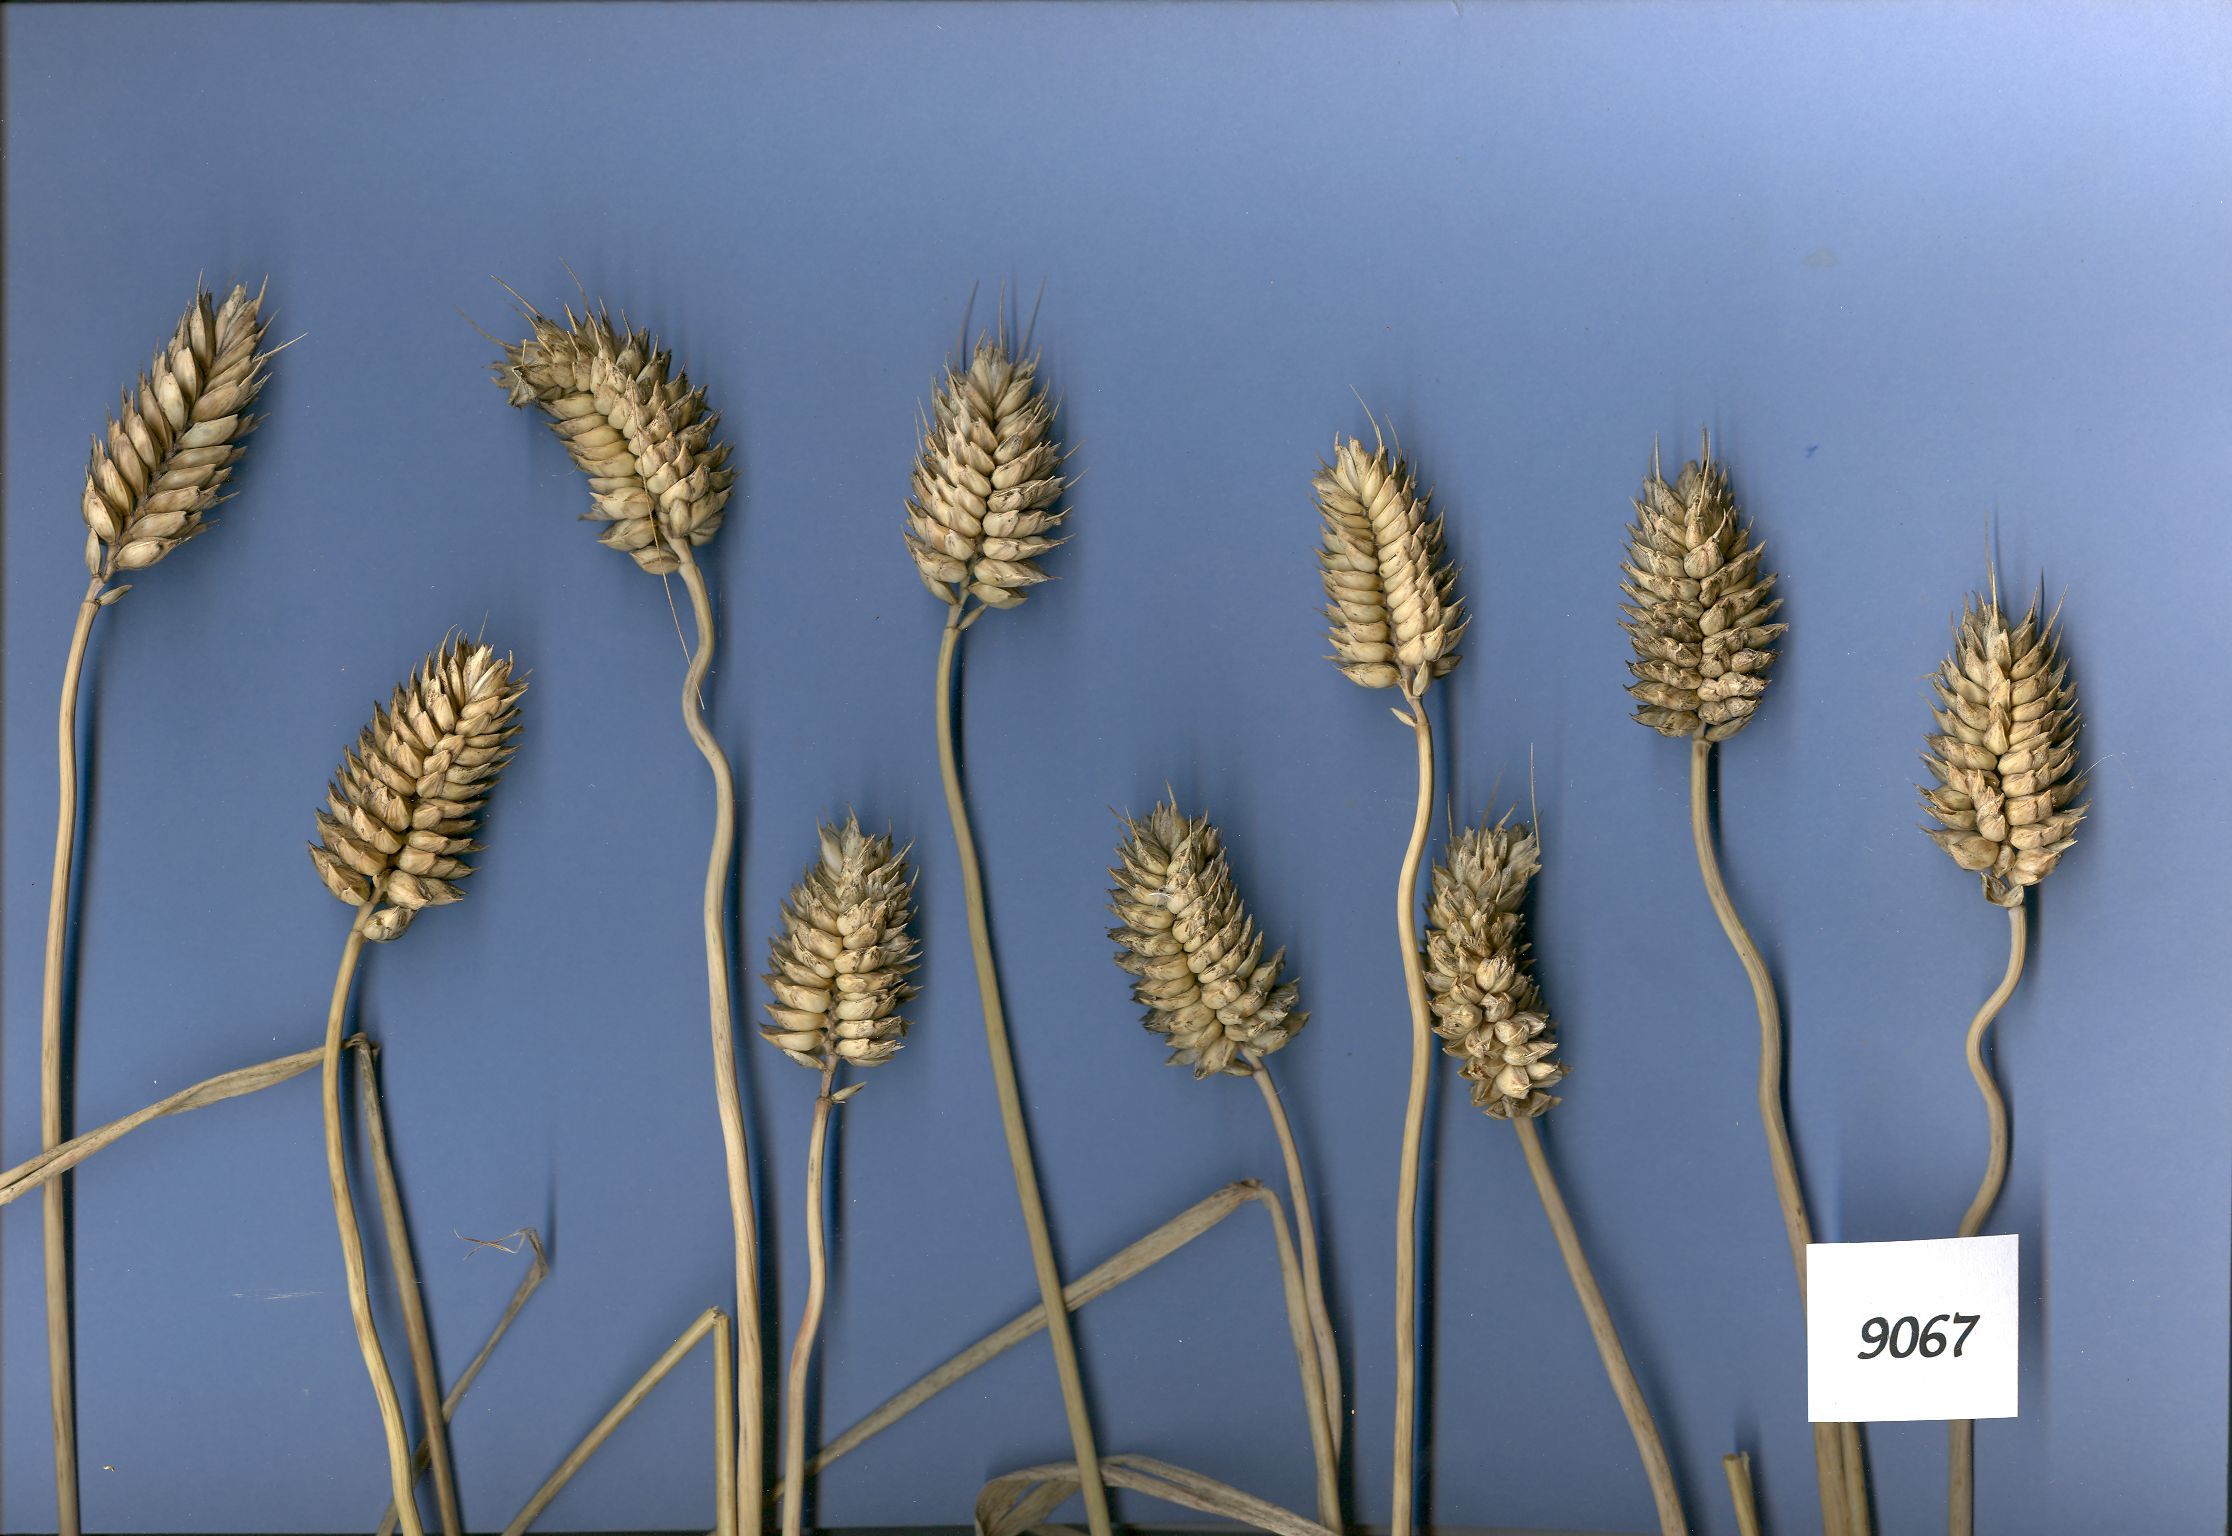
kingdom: Plantae
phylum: Tracheophyta
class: Liliopsida
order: Poales
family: Poaceae
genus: Triticum
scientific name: Triticum aestivum
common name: Common wheat
